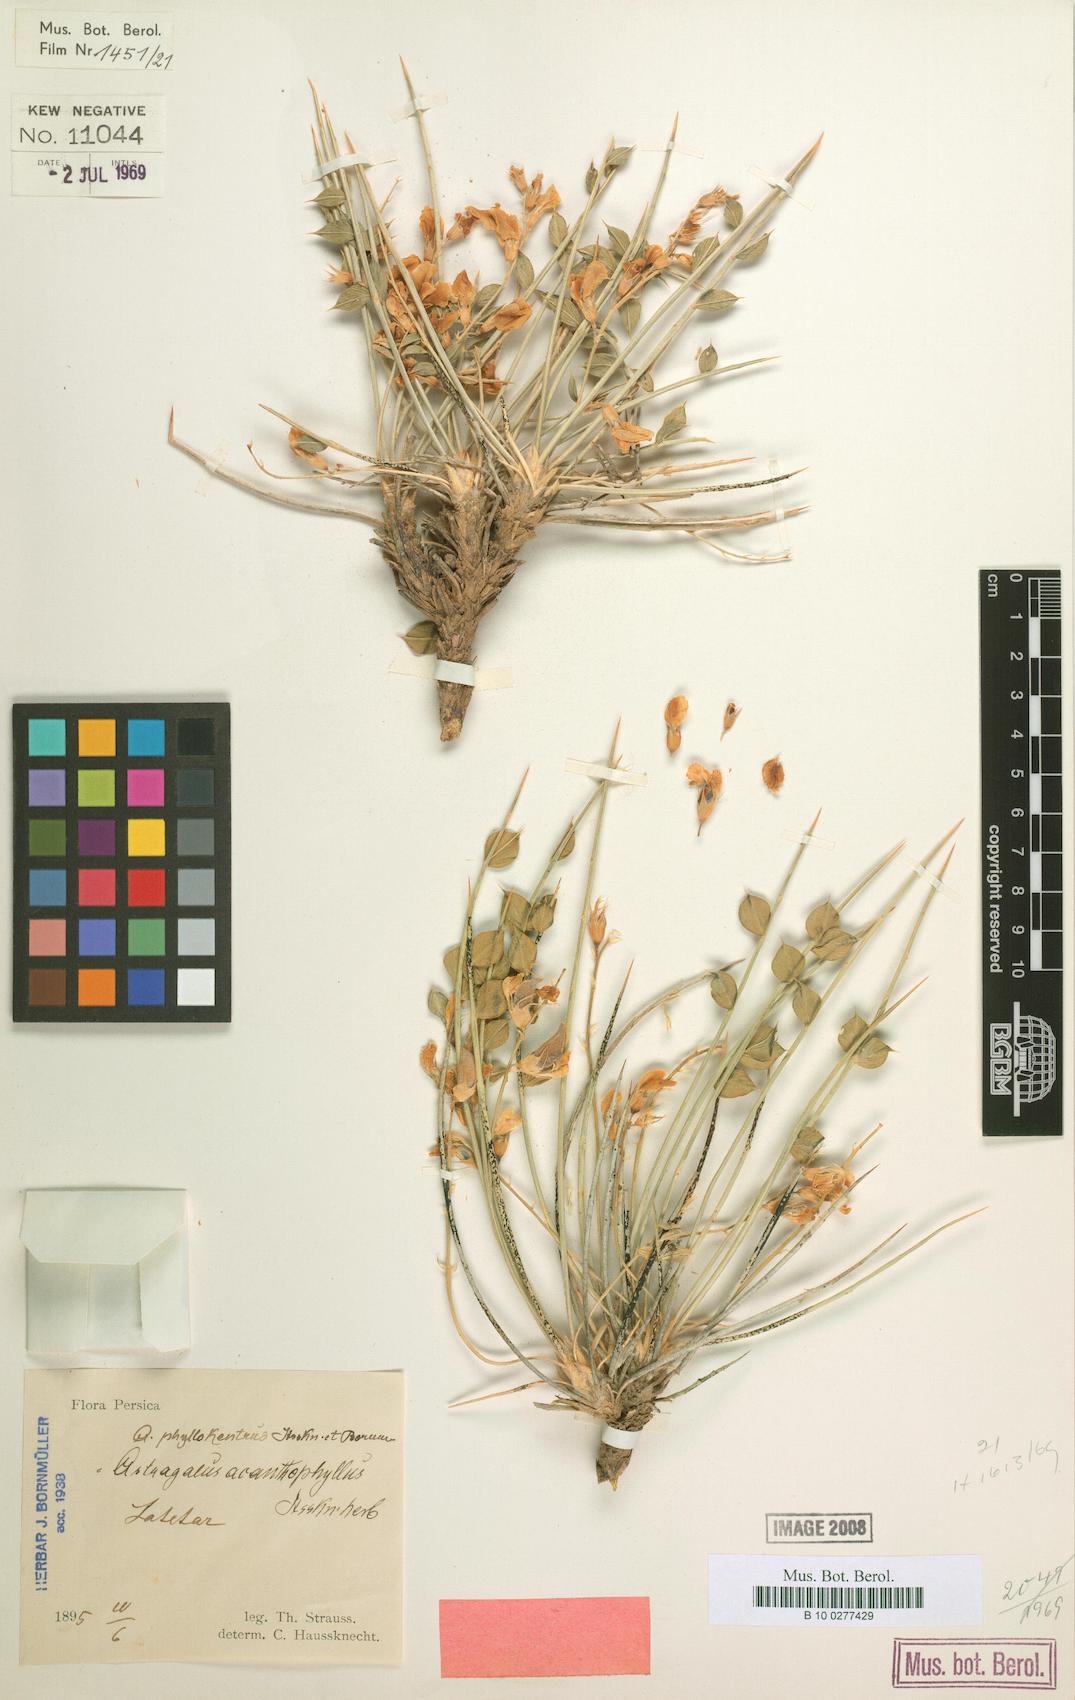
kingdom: Plantae
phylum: Tracheophyta
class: Magnoliopsida
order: Fabales
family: Fabaceae
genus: Astragalus
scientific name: Astragalus fischeri
